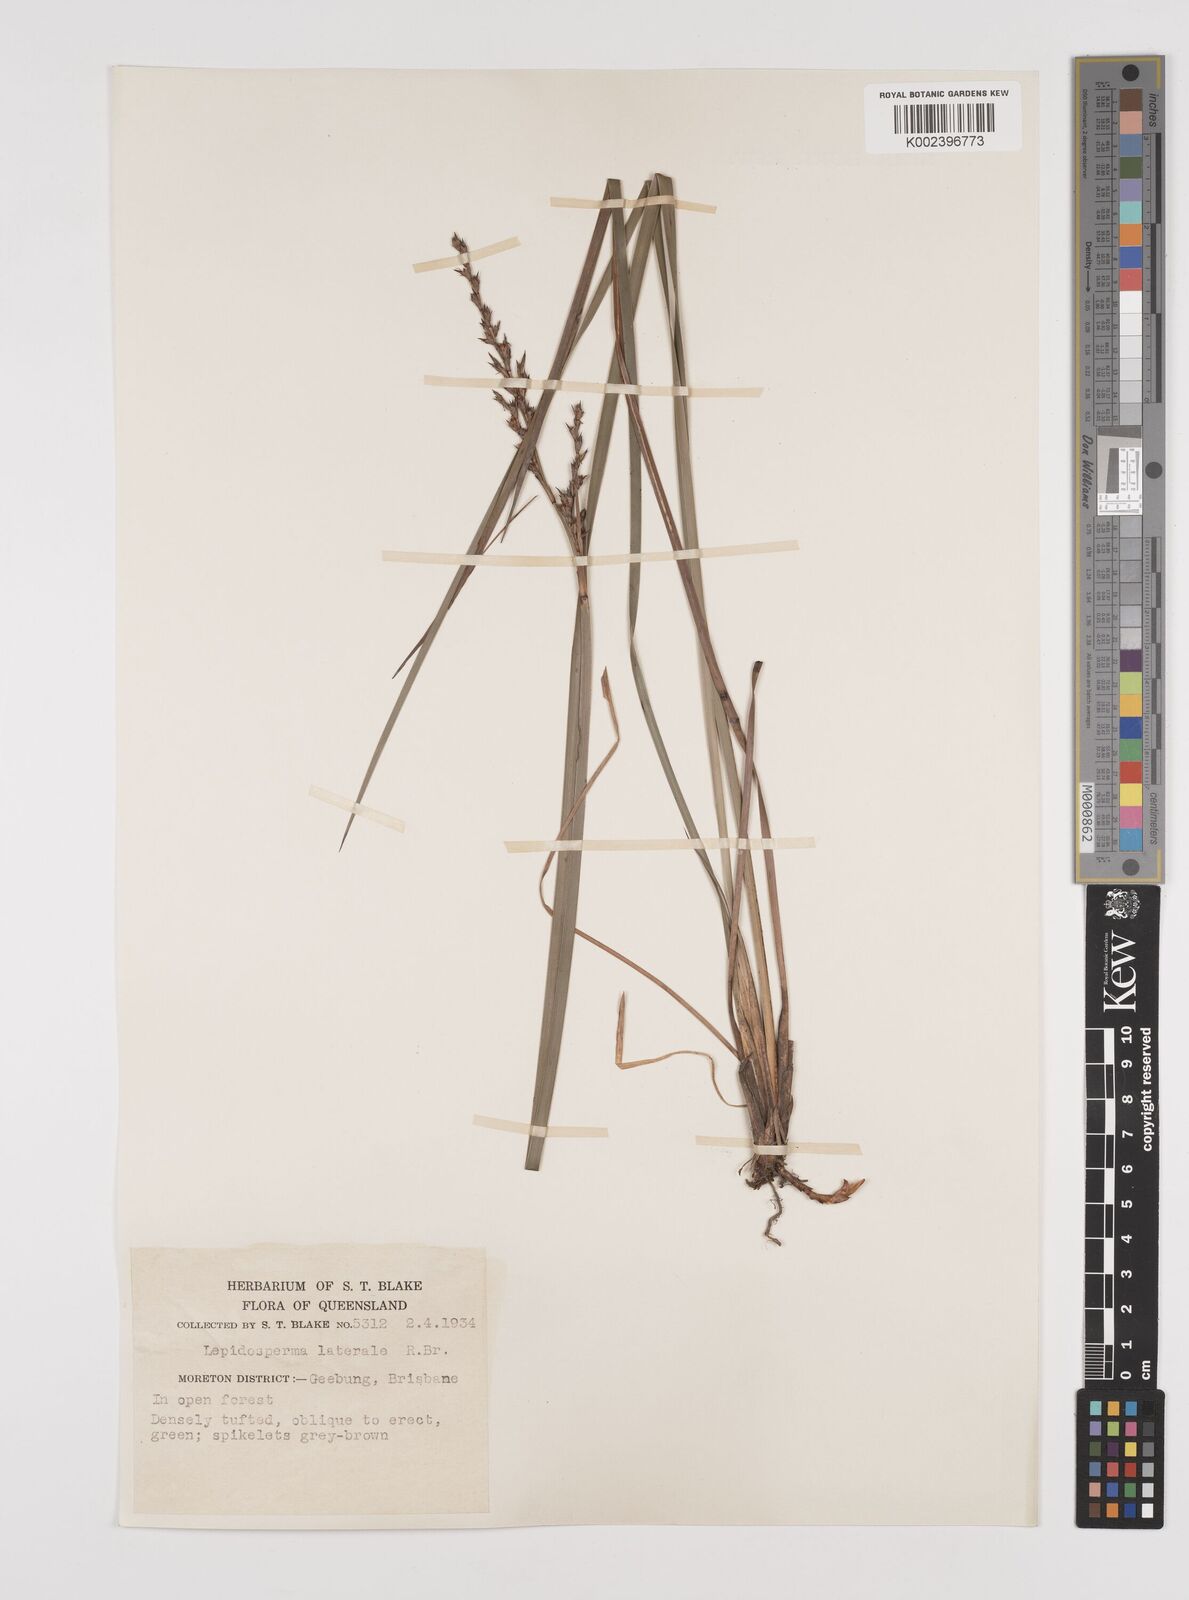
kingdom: Plantae
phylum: Tracheophyta
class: Liliopsida
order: Poales
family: Cyperaceae
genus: Lepidosperma
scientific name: Lepidosperma laterale
